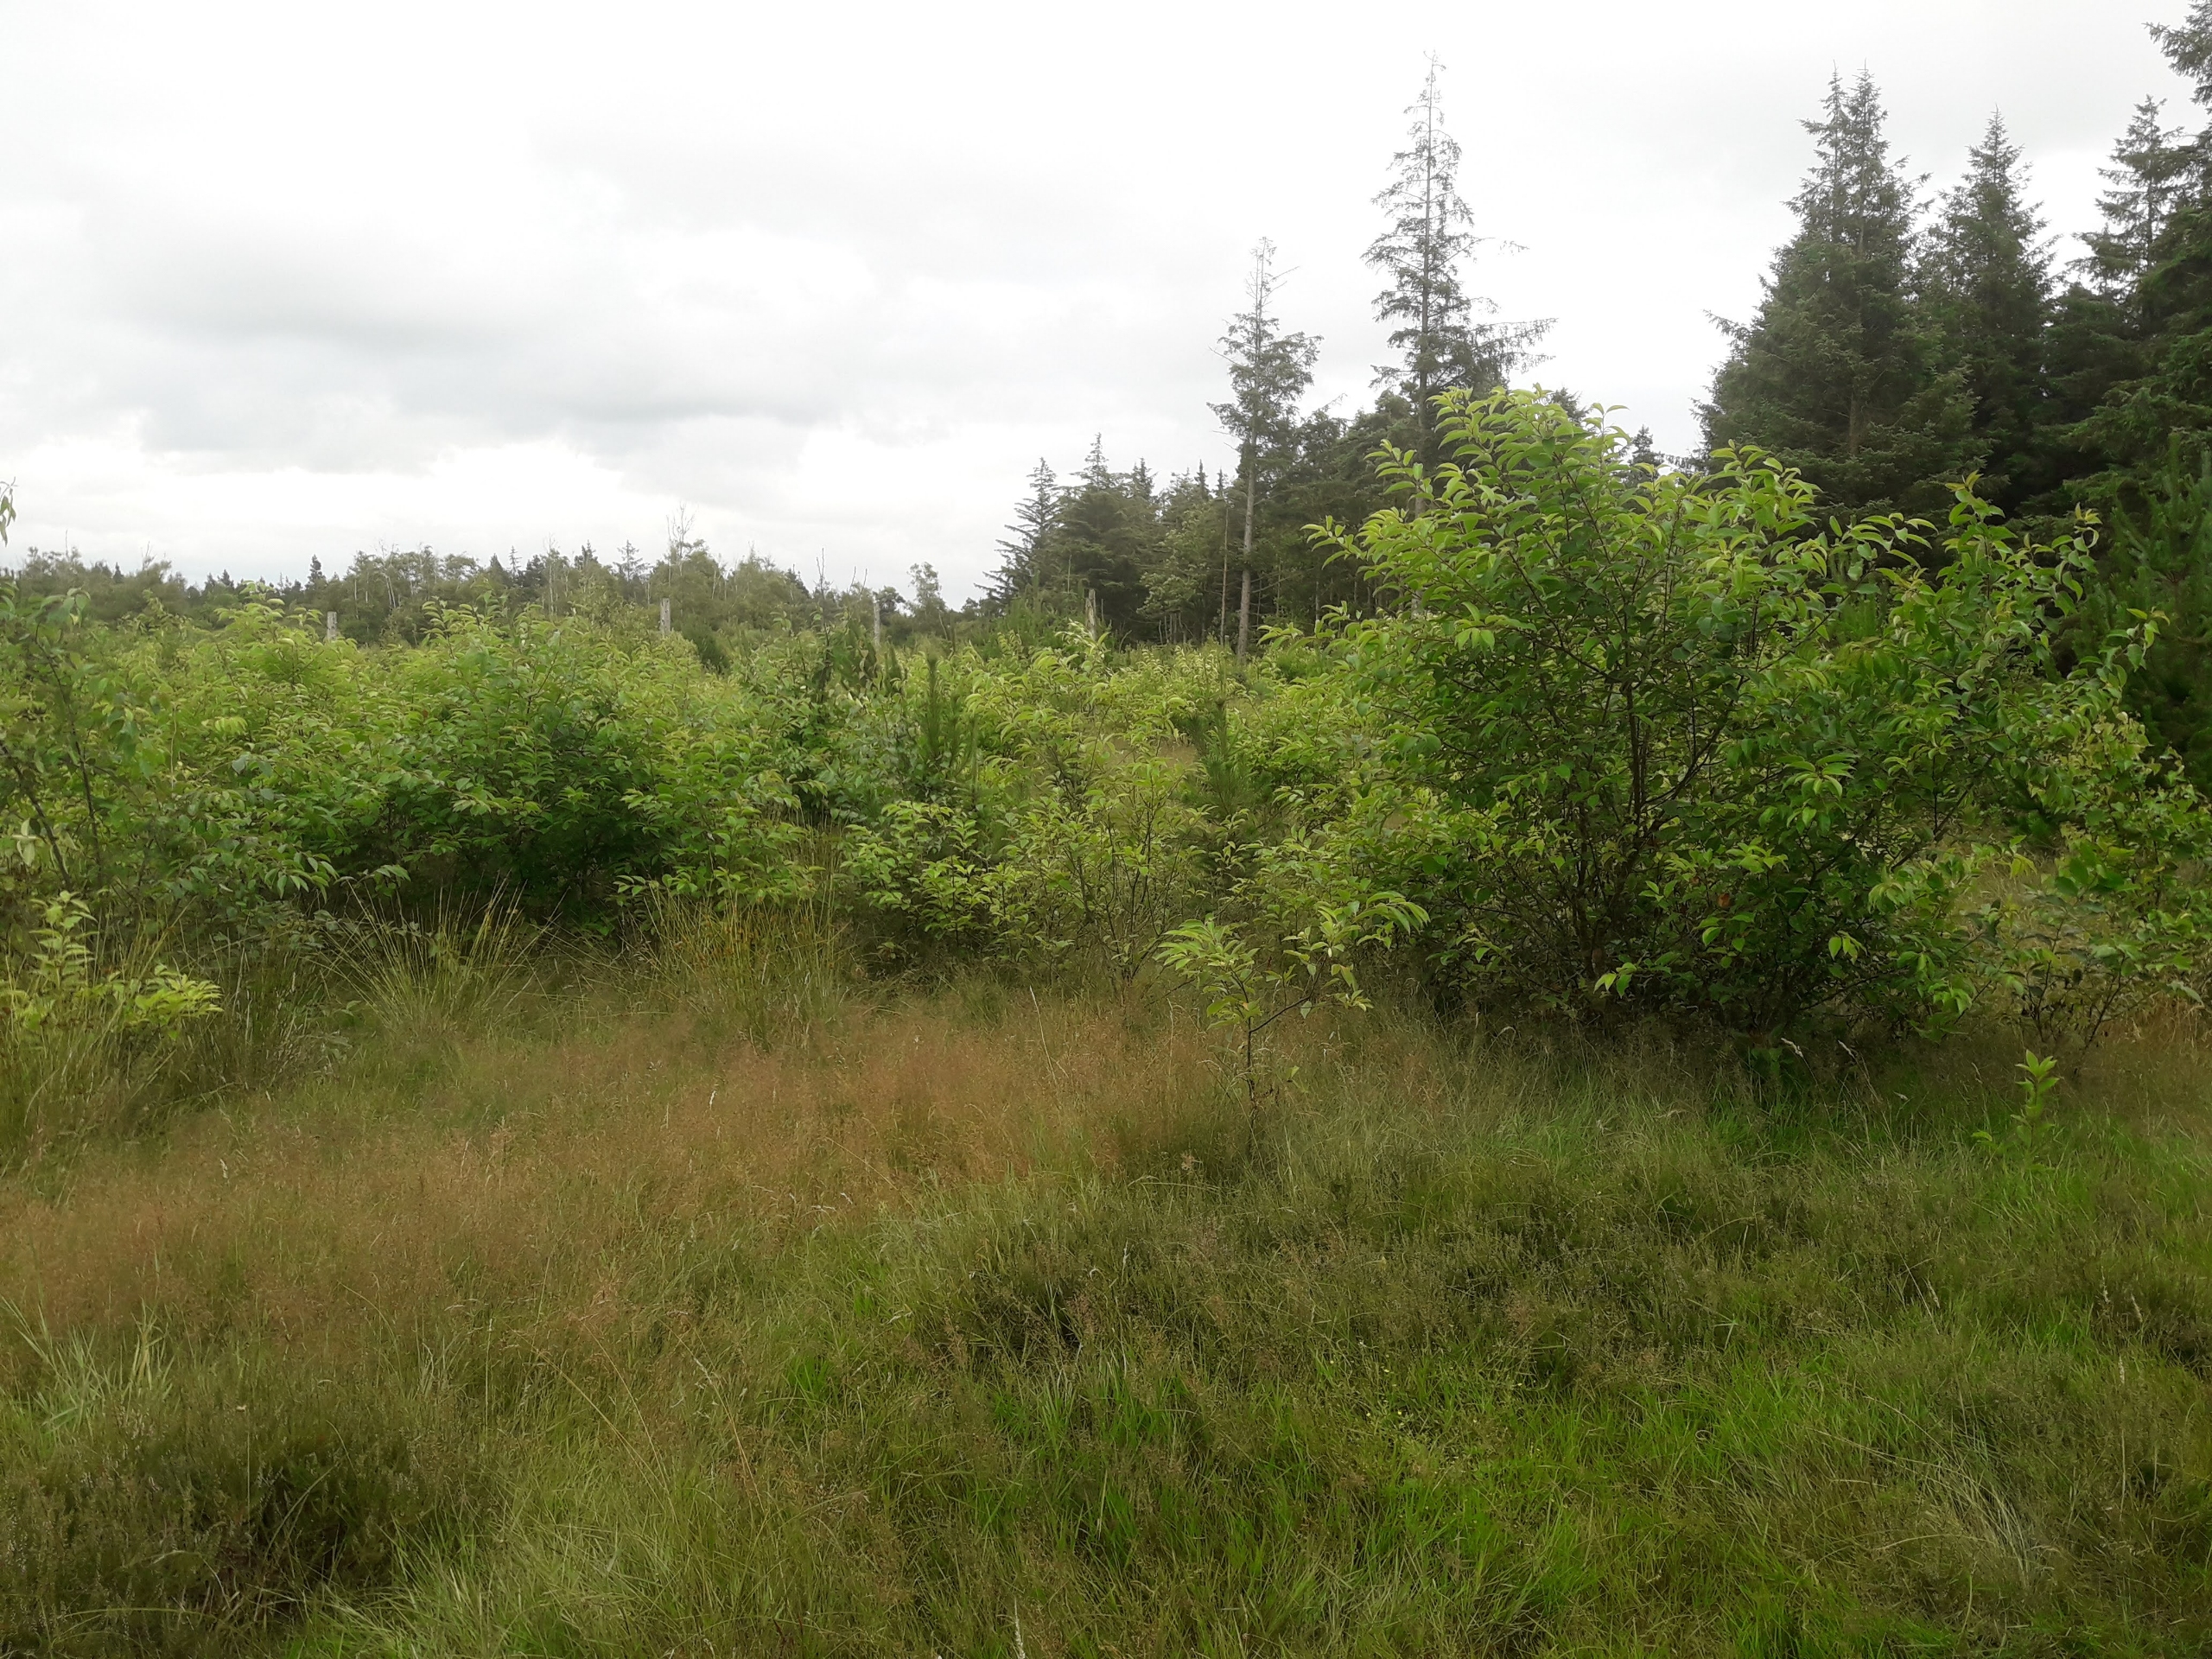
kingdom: Plantae
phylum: Tracheophyta
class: Magnoliopsida
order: Rosales
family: Rosaceae
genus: Prunus
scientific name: Prunus serotina
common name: Glansbladet hæg
